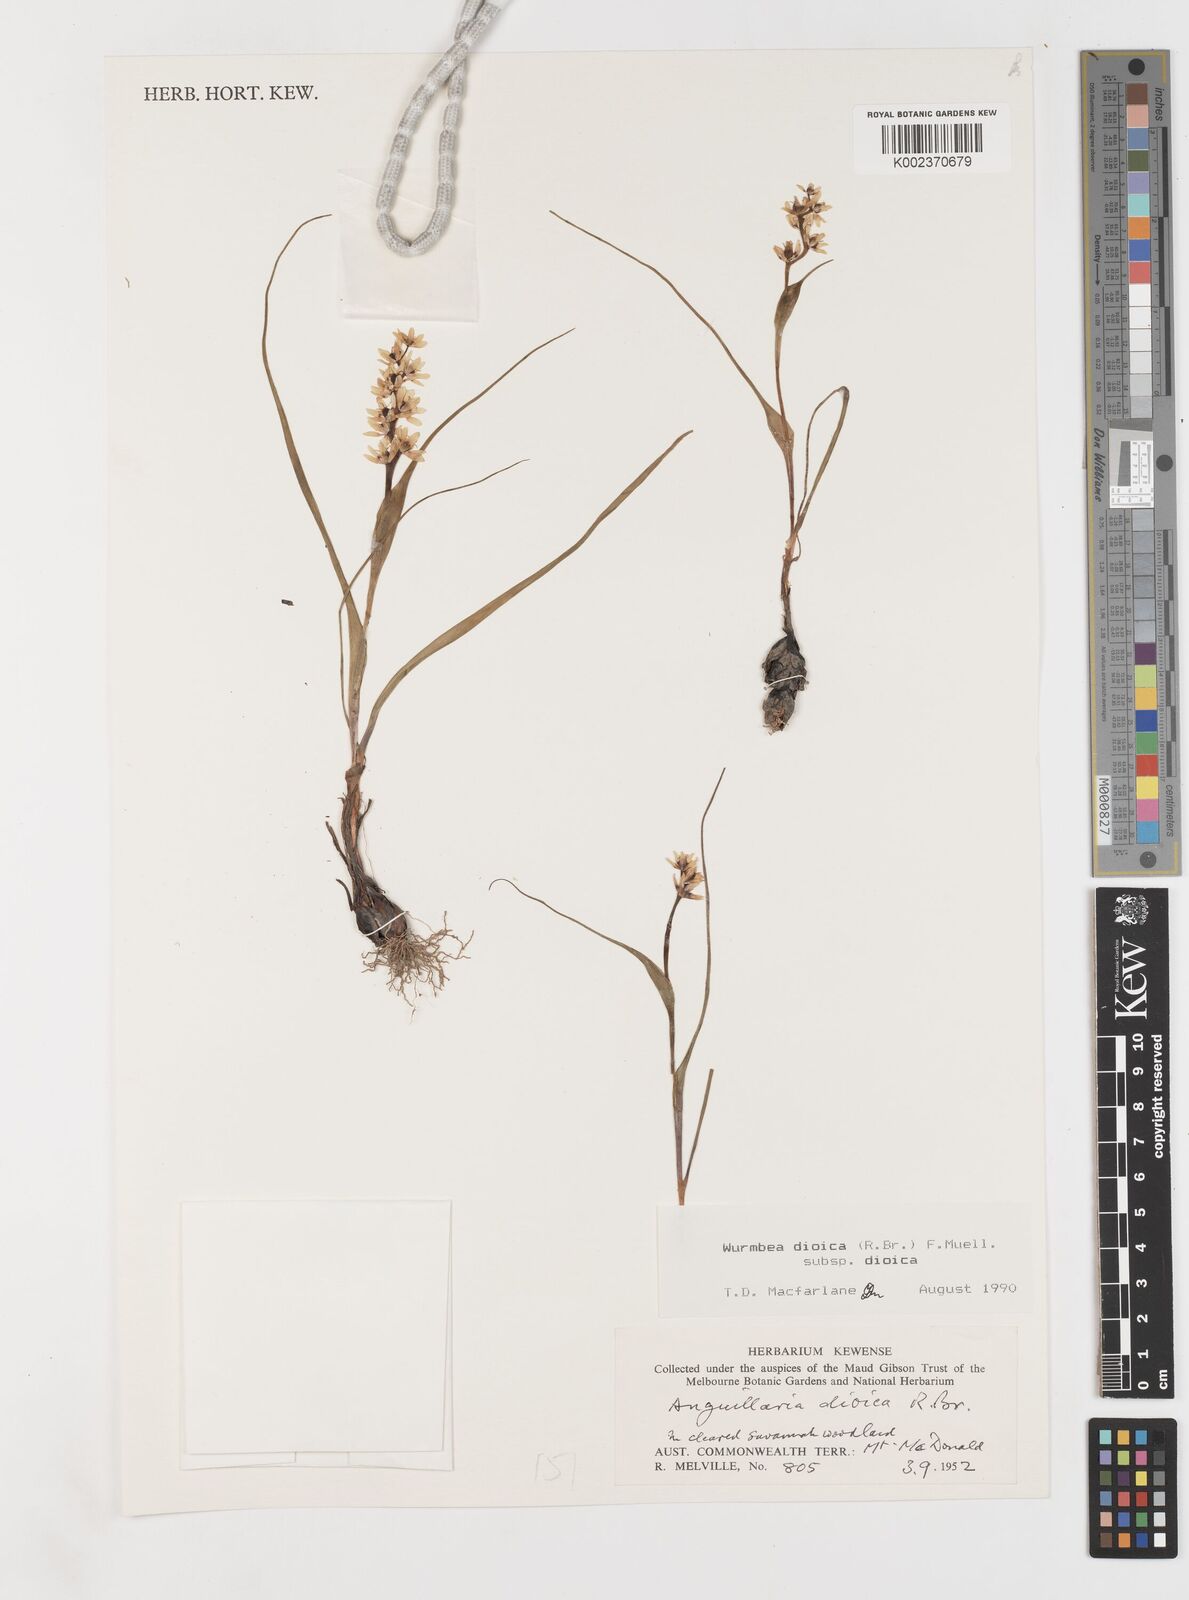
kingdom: Plantae
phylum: Tracheophyta
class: Liliopsida
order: Liliales
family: Colchicaceae
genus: Wurmbea
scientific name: Wurmbea dioica
